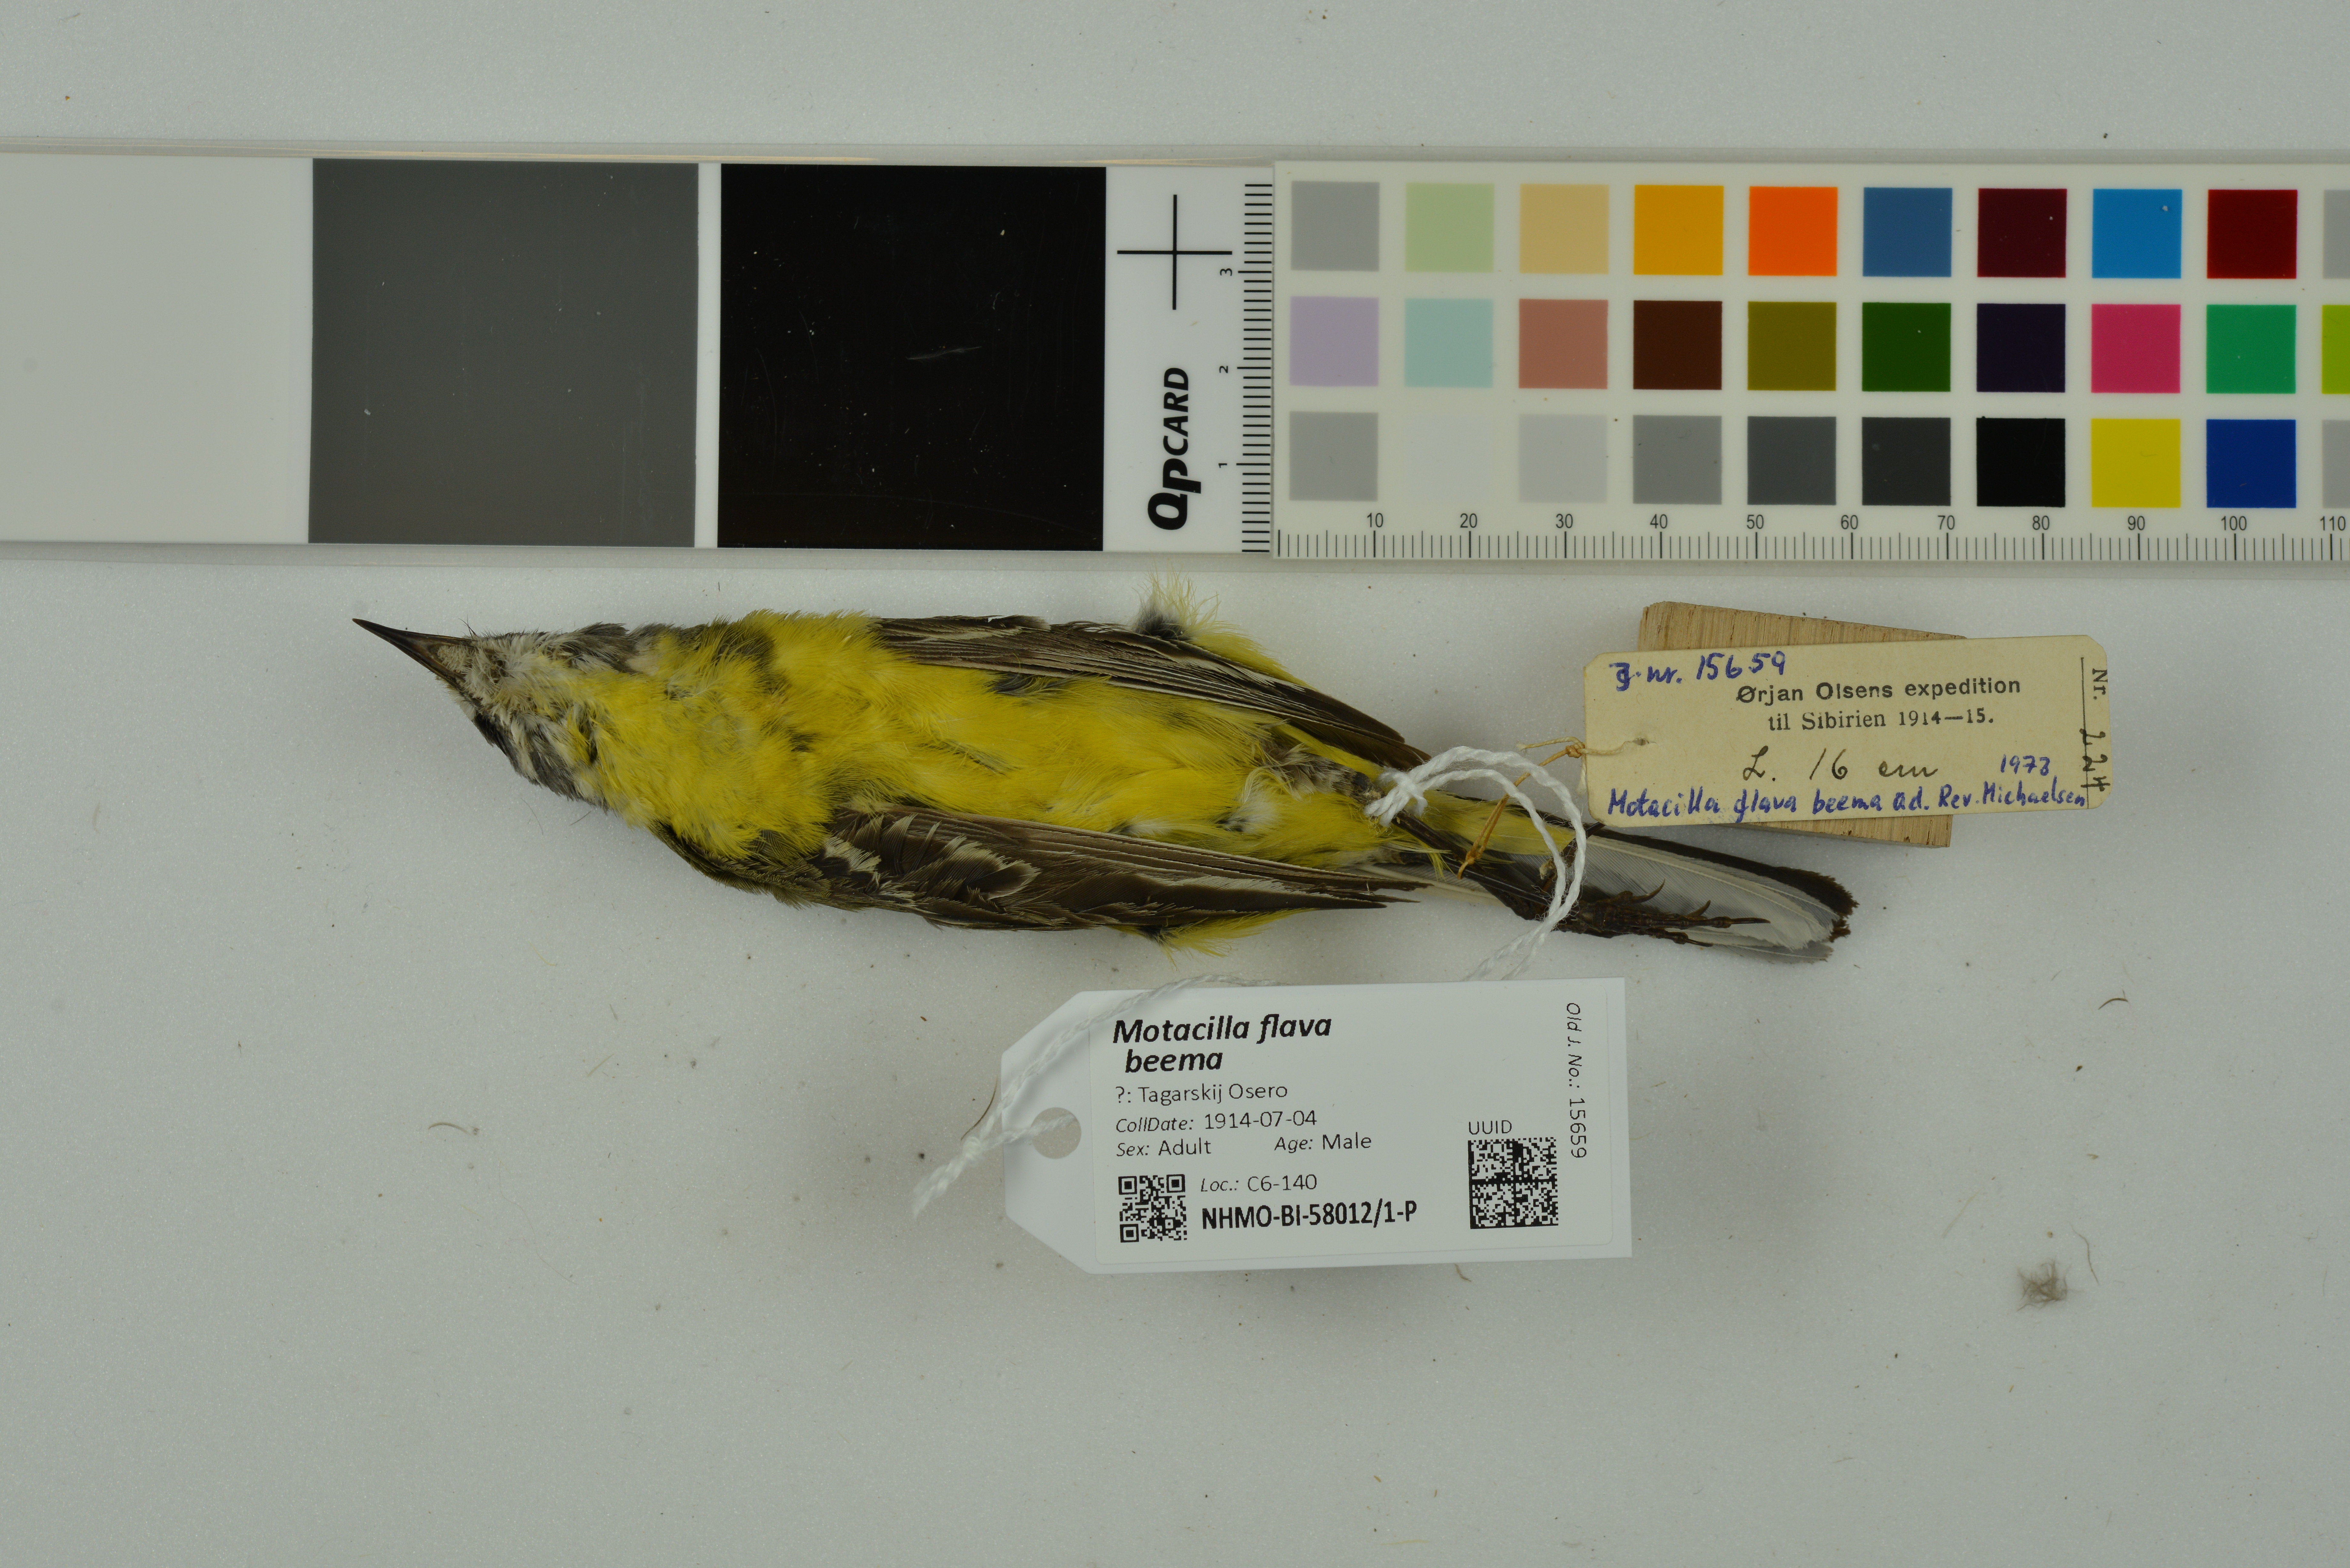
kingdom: Animalia
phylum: Chordata
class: Aves
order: Passeriformes
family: Motacillidae
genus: Motacilla
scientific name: Motacilla flava
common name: Western yellow wagtail
